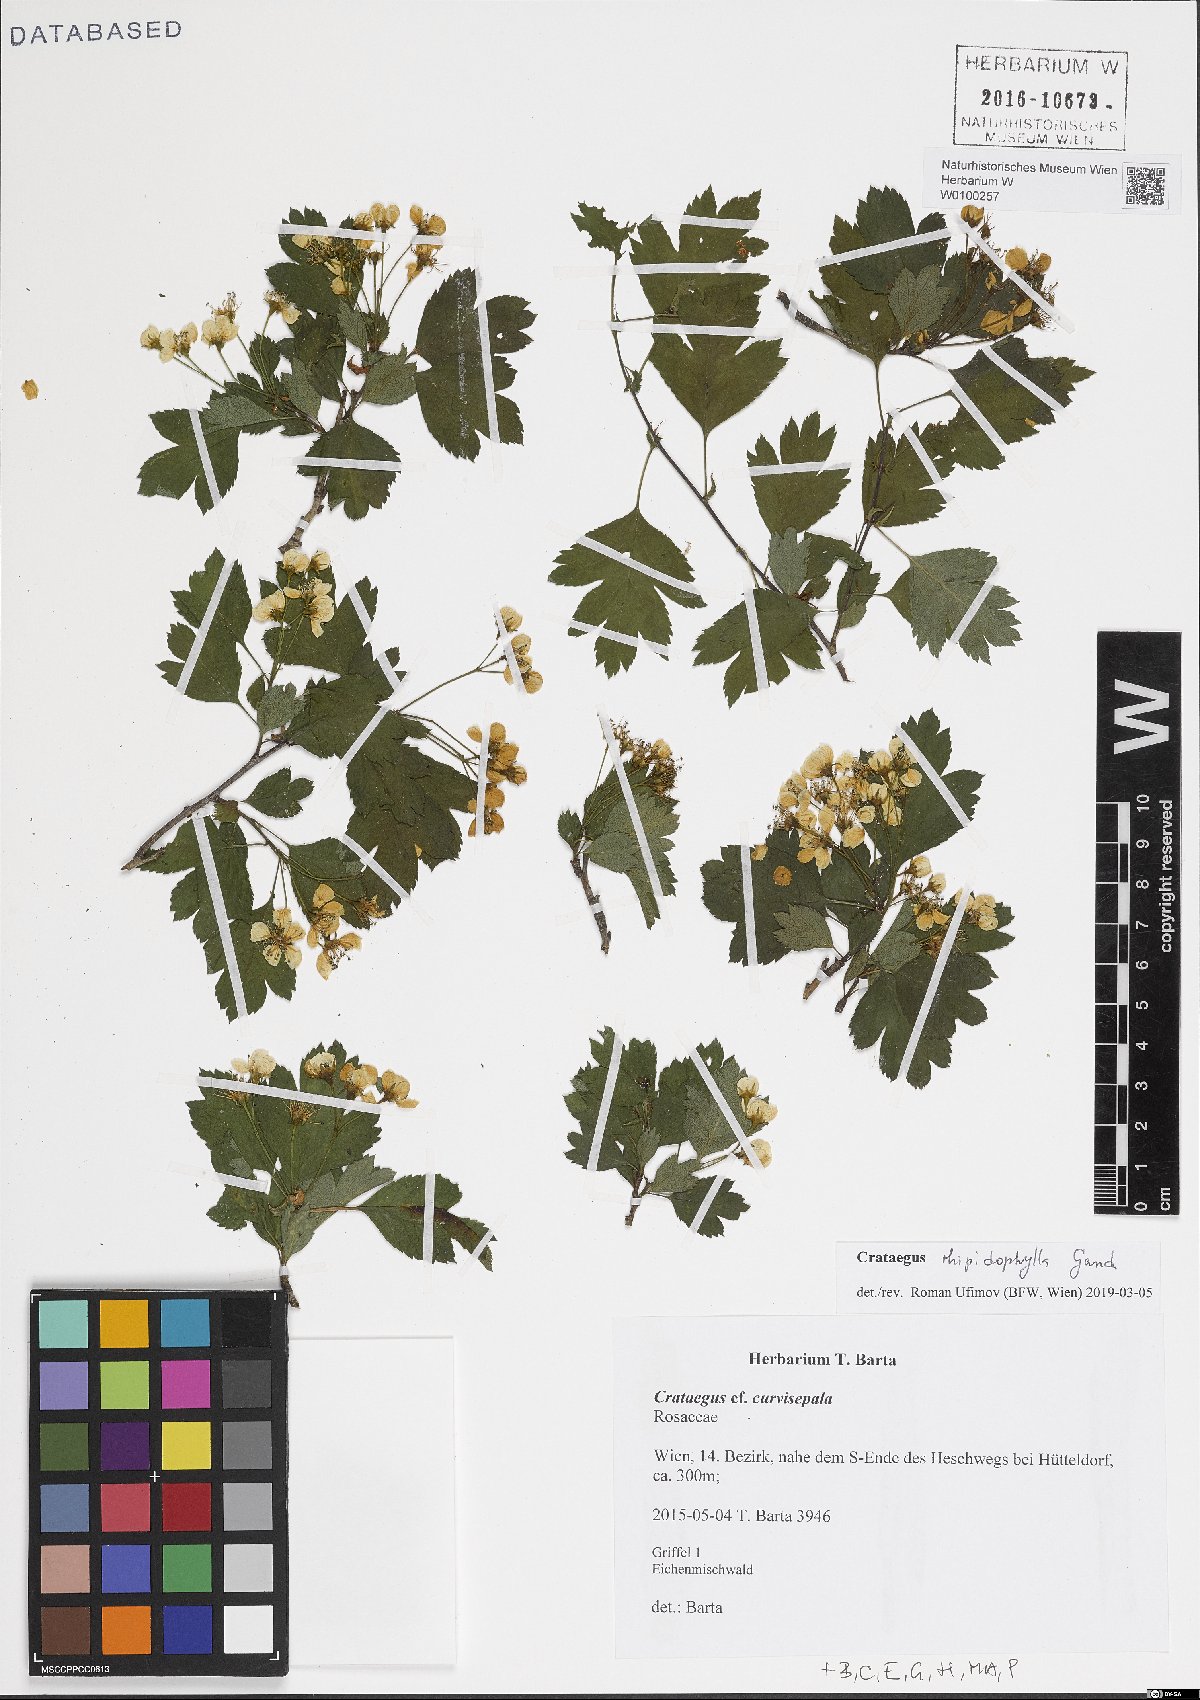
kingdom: Plantae
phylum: Tracheophyta
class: Magnoliopsida
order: Rosales
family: Rosaceae
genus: Crataegus
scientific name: Crataegus rhipidophylla
